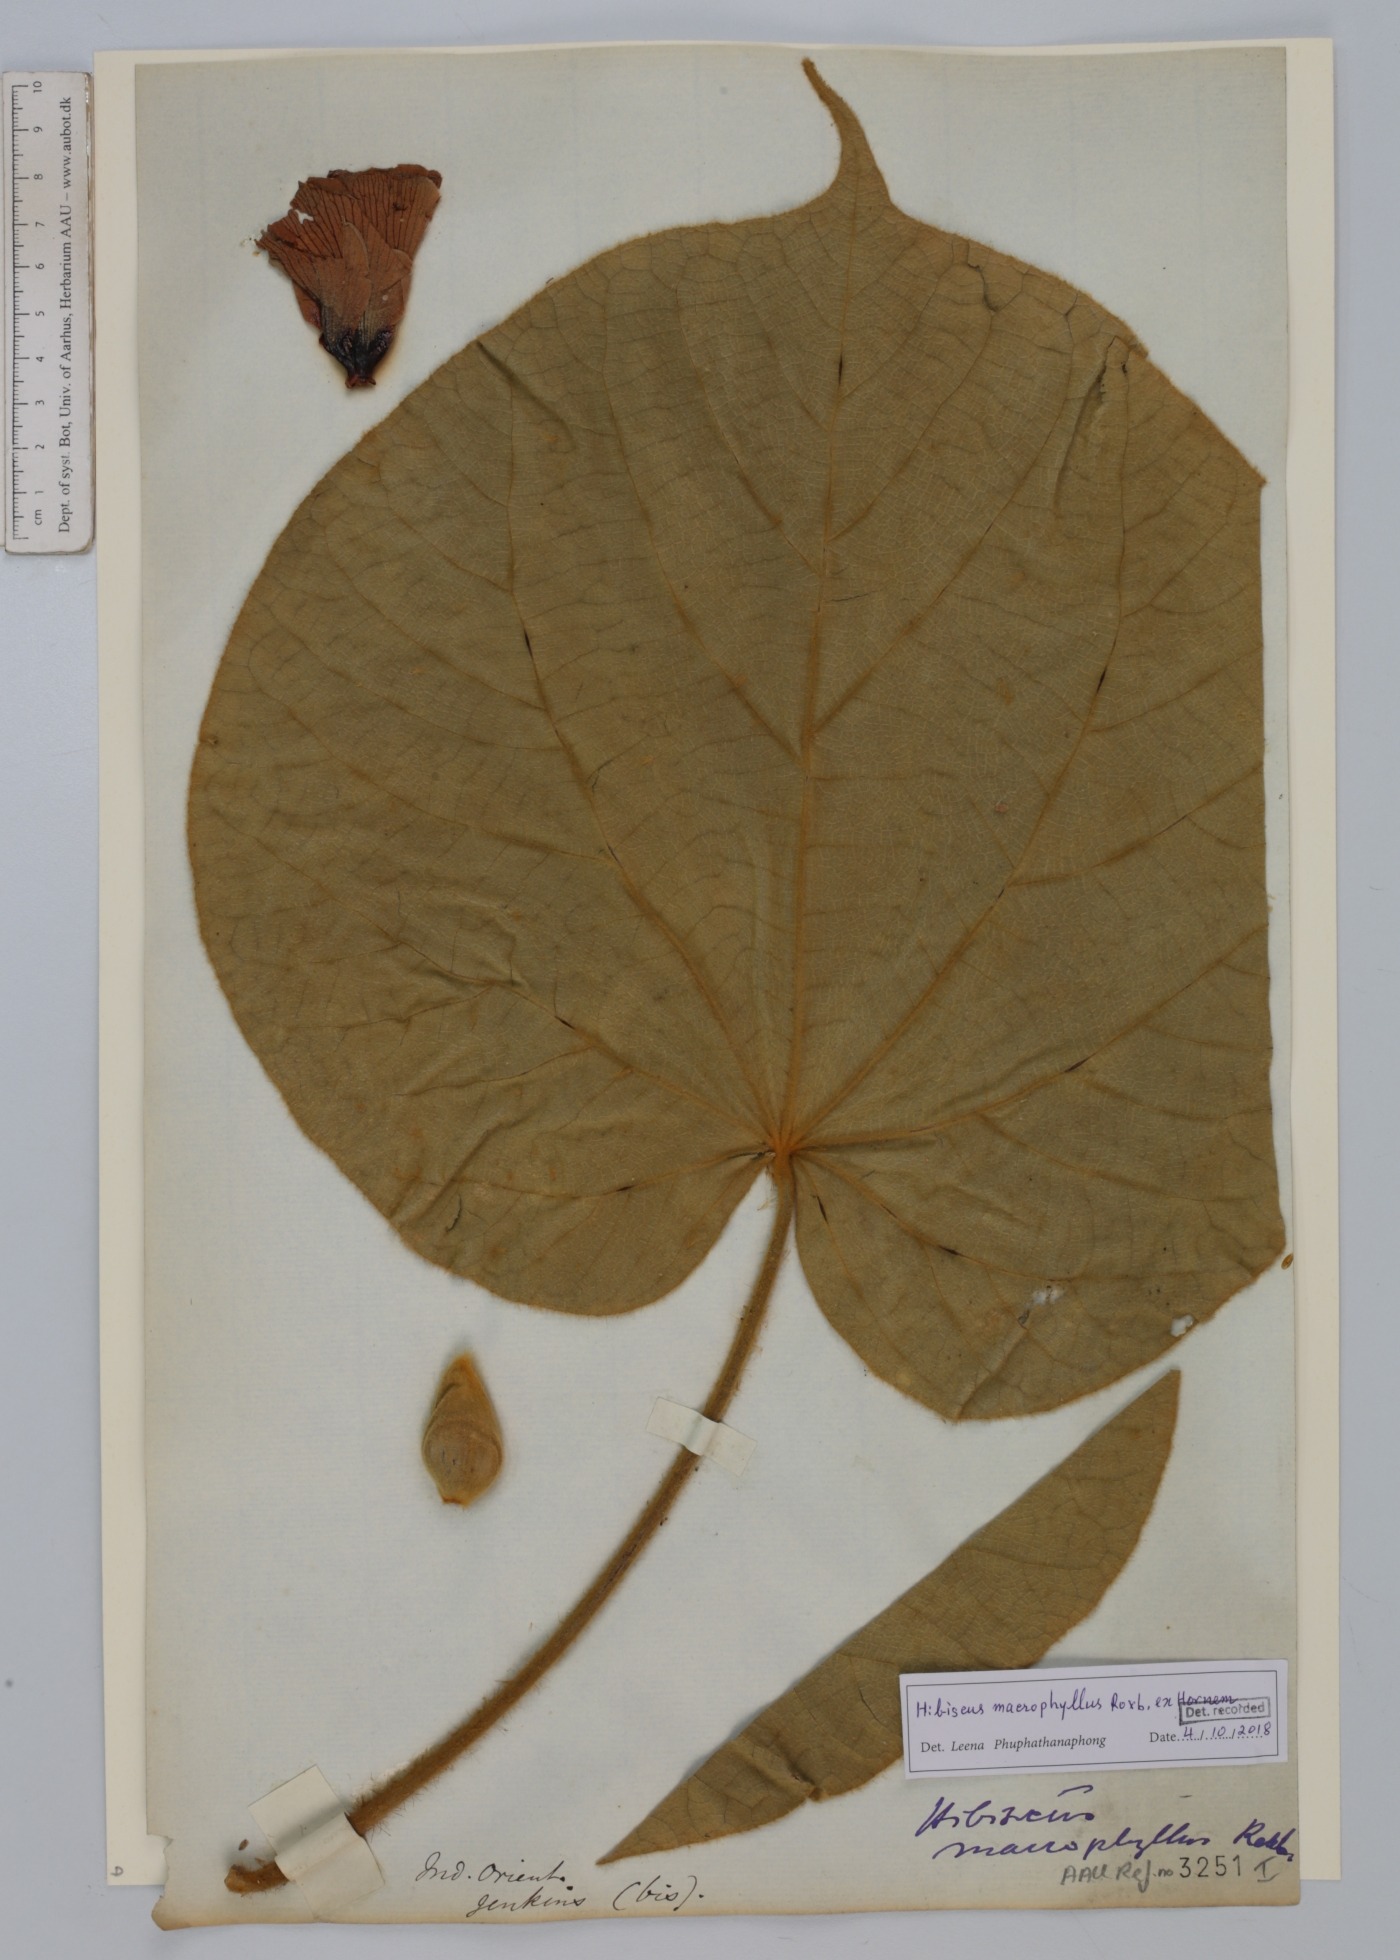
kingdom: Plantae
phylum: Tracheophyta
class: Magnoliopsida
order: Malvales
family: Malvaceae
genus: Talipariti
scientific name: Talipariti macrophyllum
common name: Largeleaf rosemallow
